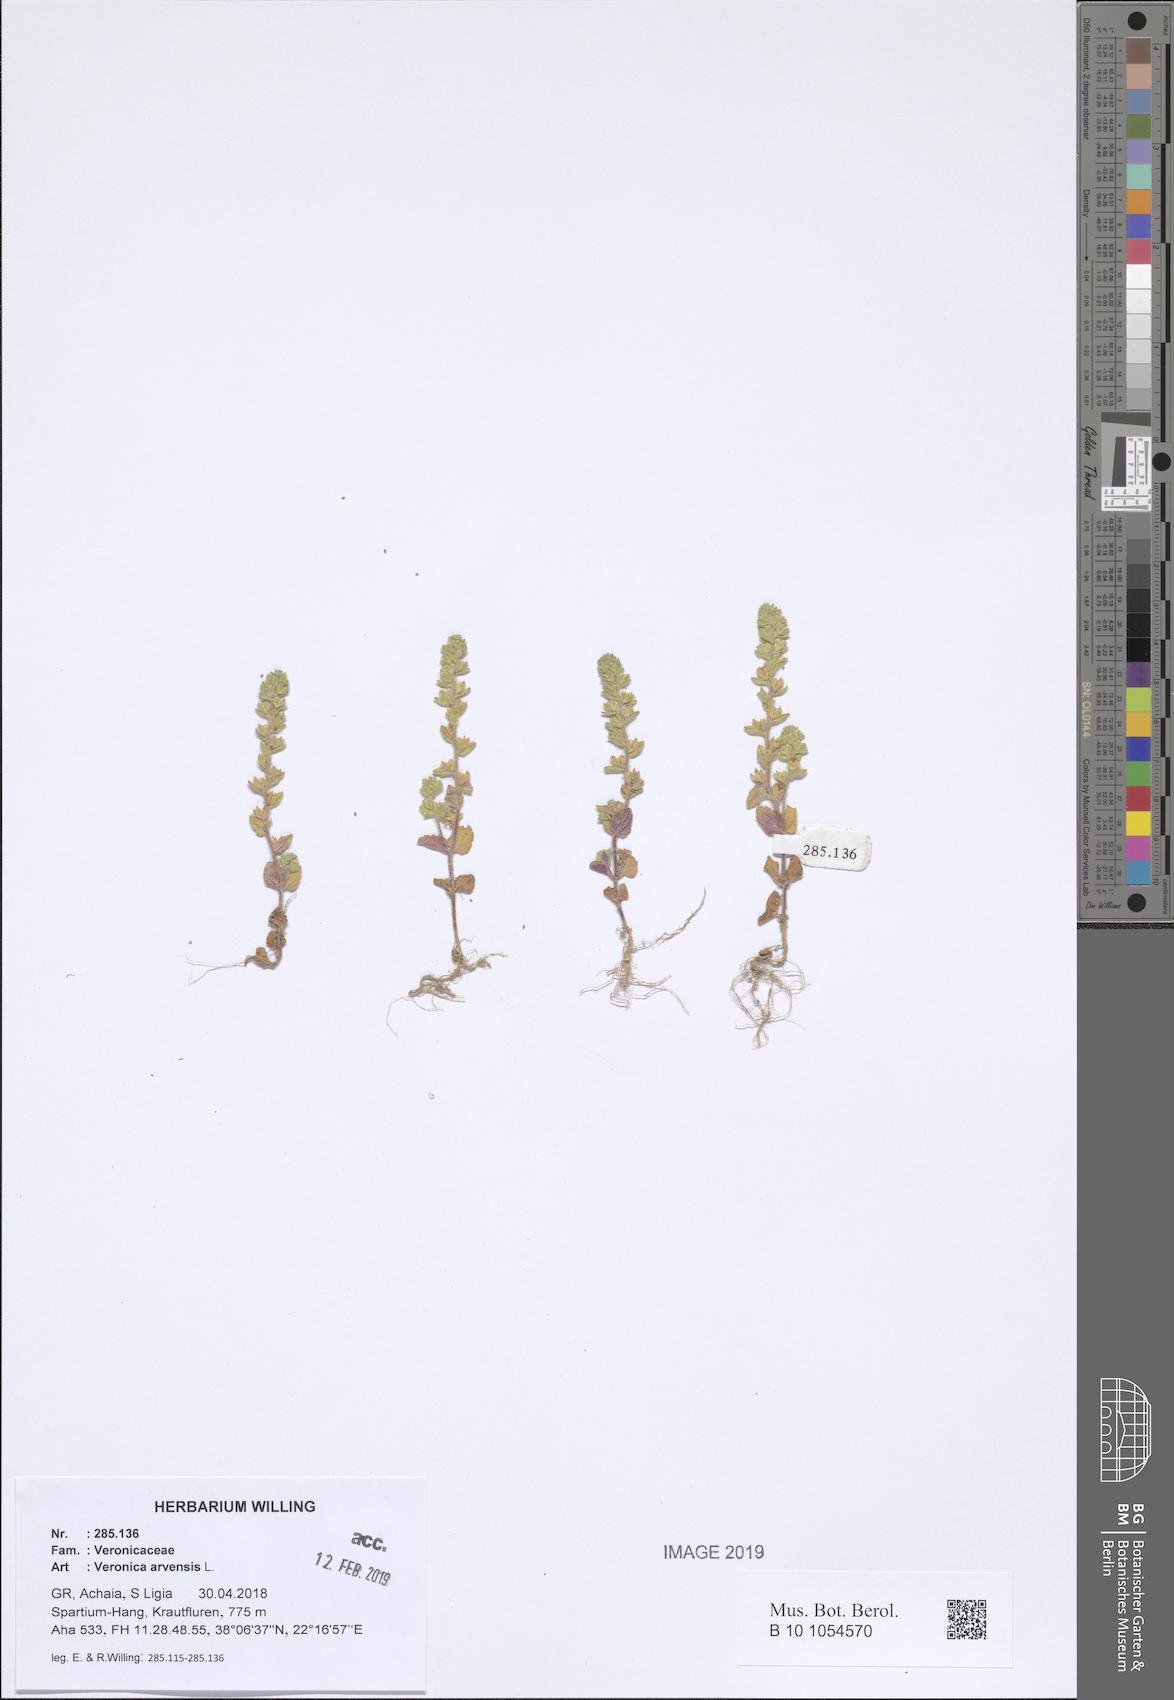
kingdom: Plantae
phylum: Tracheophyta
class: Magnoliopsida
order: Lamiales
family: Plantaginaceae
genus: Veronica
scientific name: Veronica arvensis
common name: Corn speedwell
